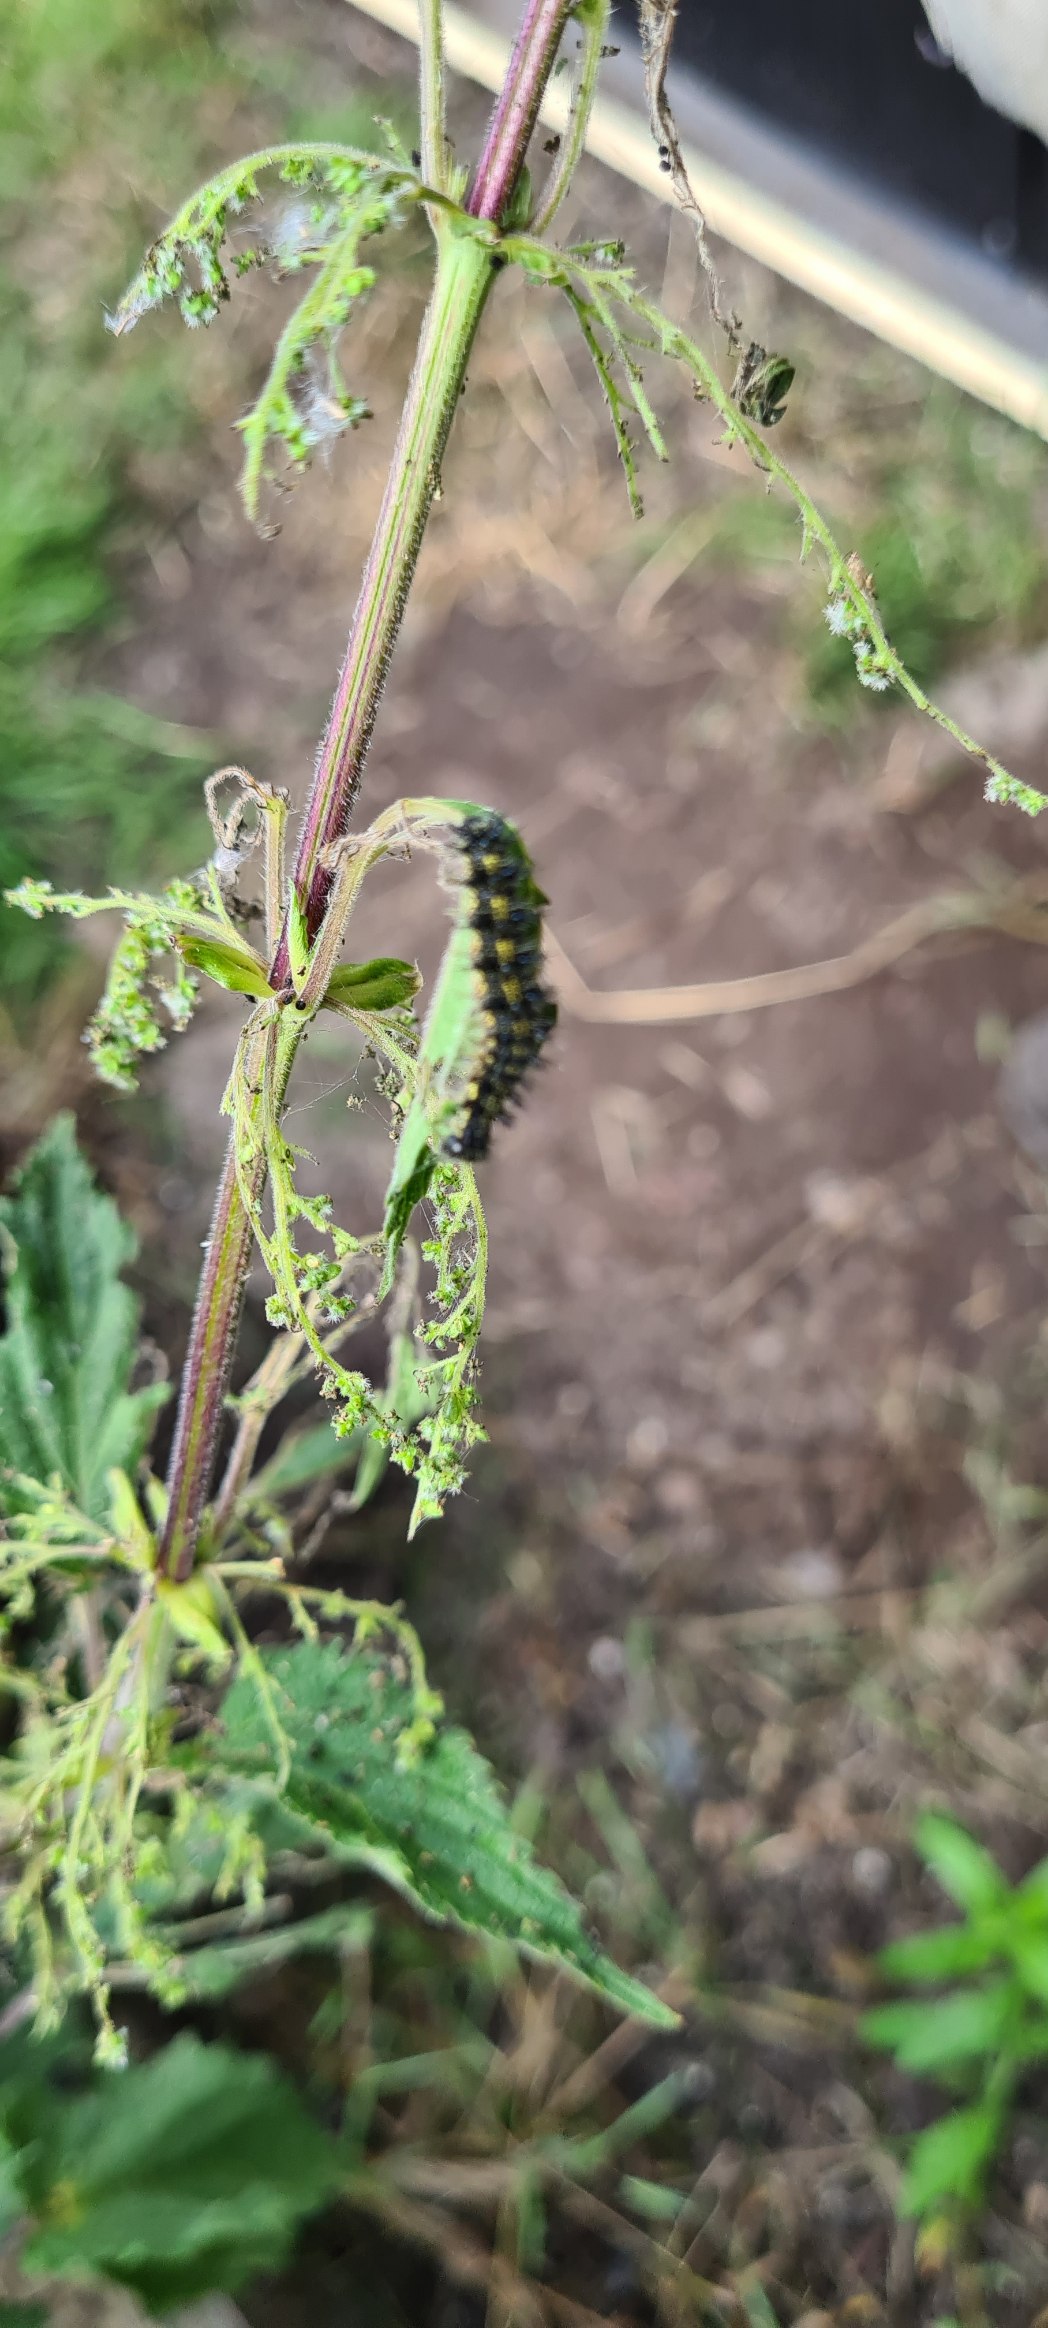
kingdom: Animalia
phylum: Arthropoda
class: Insecta
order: Lepidoptera
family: Nymphalidae
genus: Aglais
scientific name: Aglais urticae
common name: Nældens takvinge
